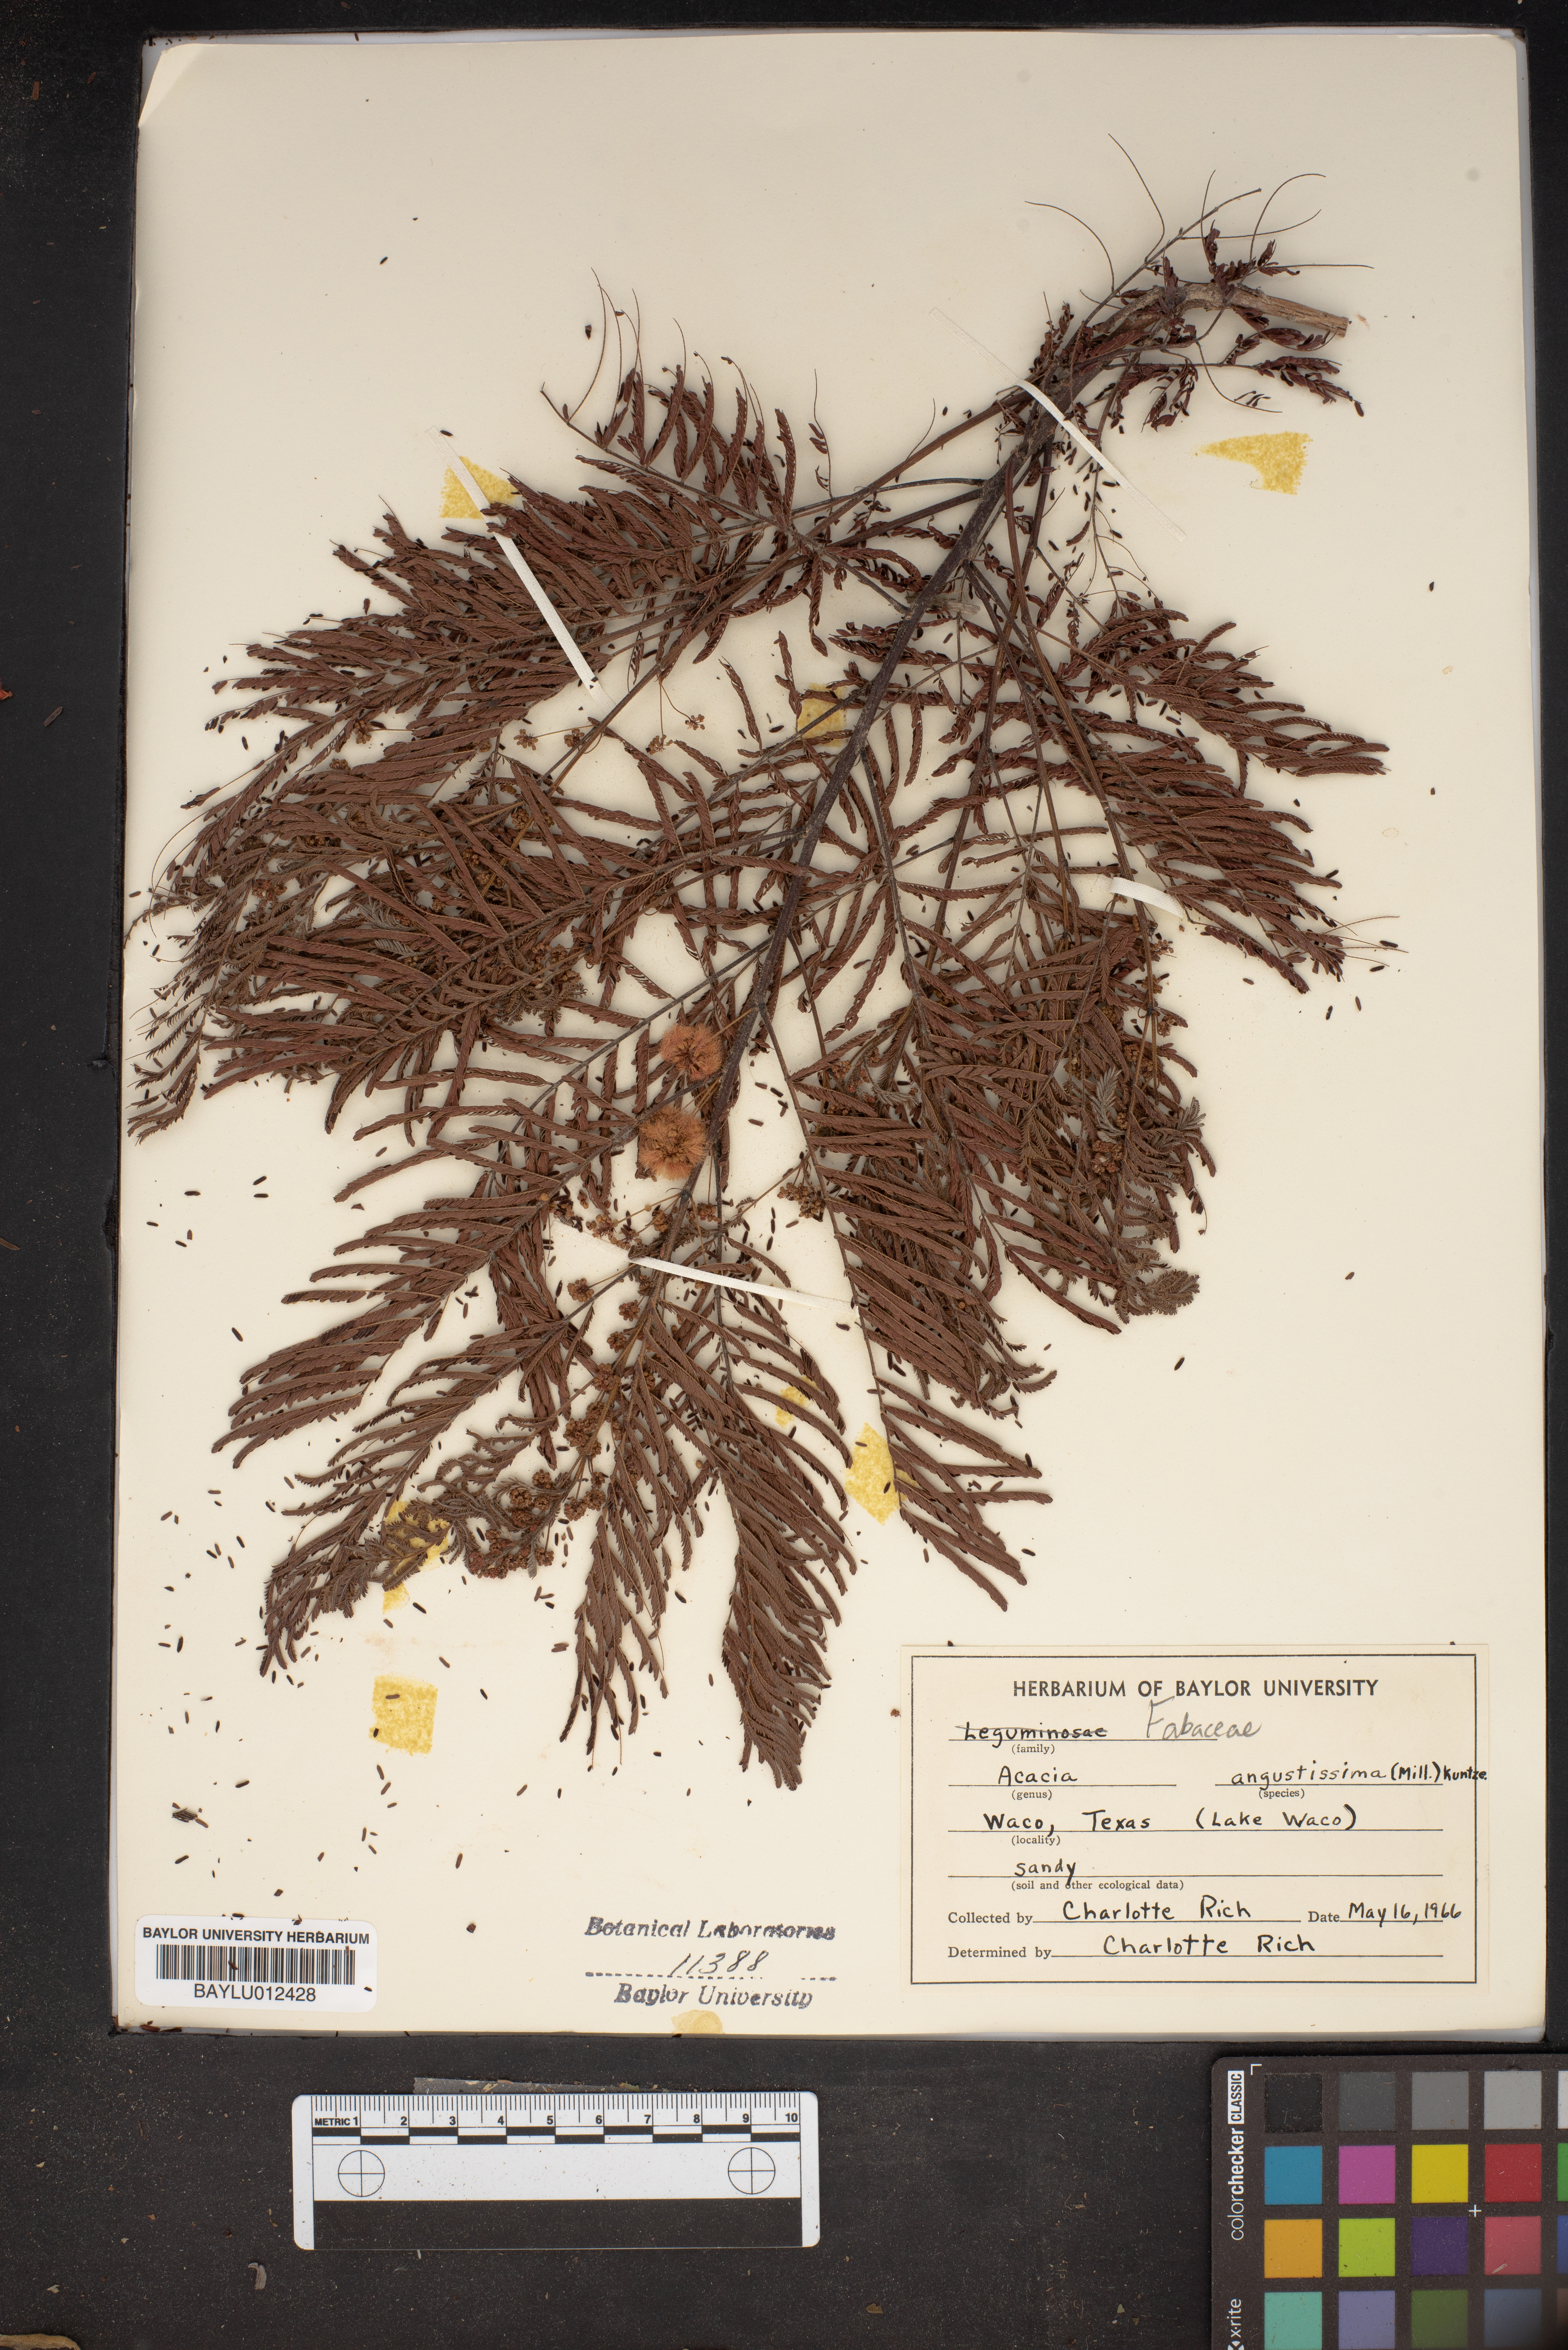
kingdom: Plantae
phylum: Tracheophyta
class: Magnoliopsida
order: Fabales
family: Fabaceae
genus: Acaciella
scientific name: Acaciella angustissima
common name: Prairie acacia
